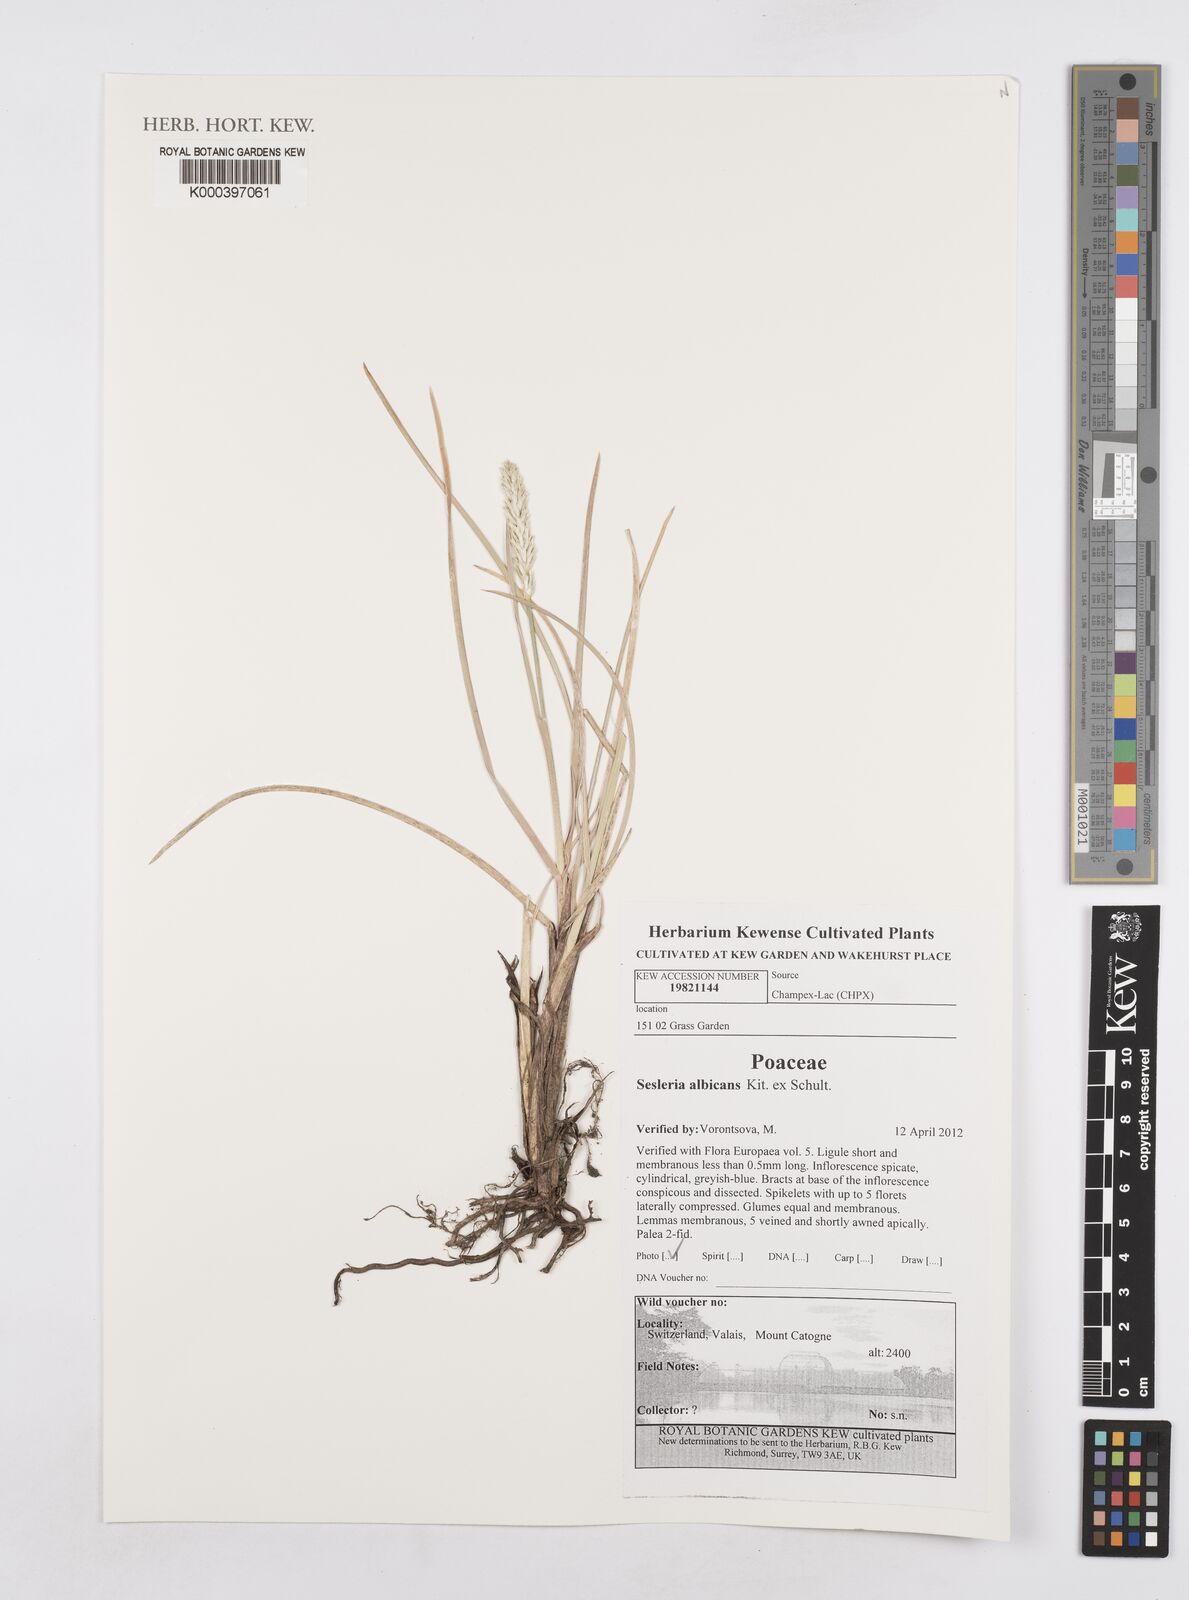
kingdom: Plantae
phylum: Tracheophyta
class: Liliopsida
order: Poales
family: Poaceae
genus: Sesleria
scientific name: Sesleria albicans
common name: Blue moor-grass
